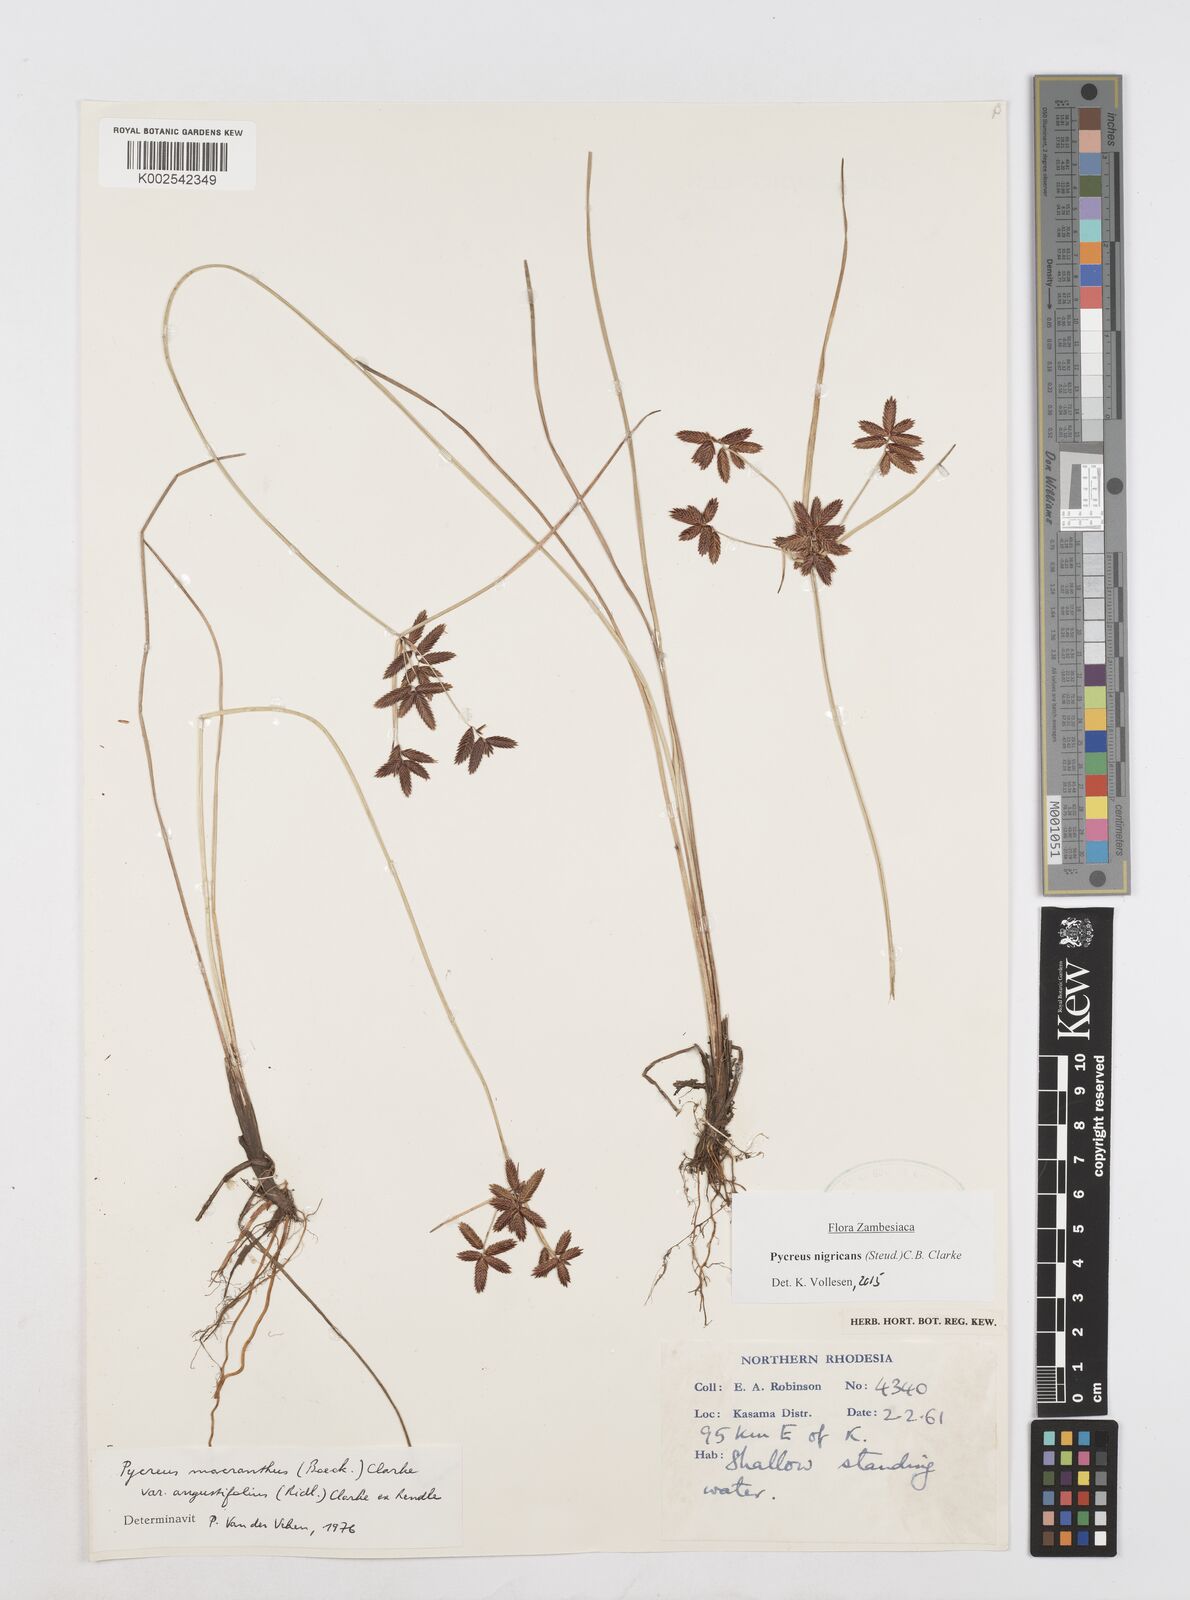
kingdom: Plantae
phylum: Tracheophyta
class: Liliopsida
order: Poales
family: Cyperaceae
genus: Cyperus
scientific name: Cyperus nigricans
